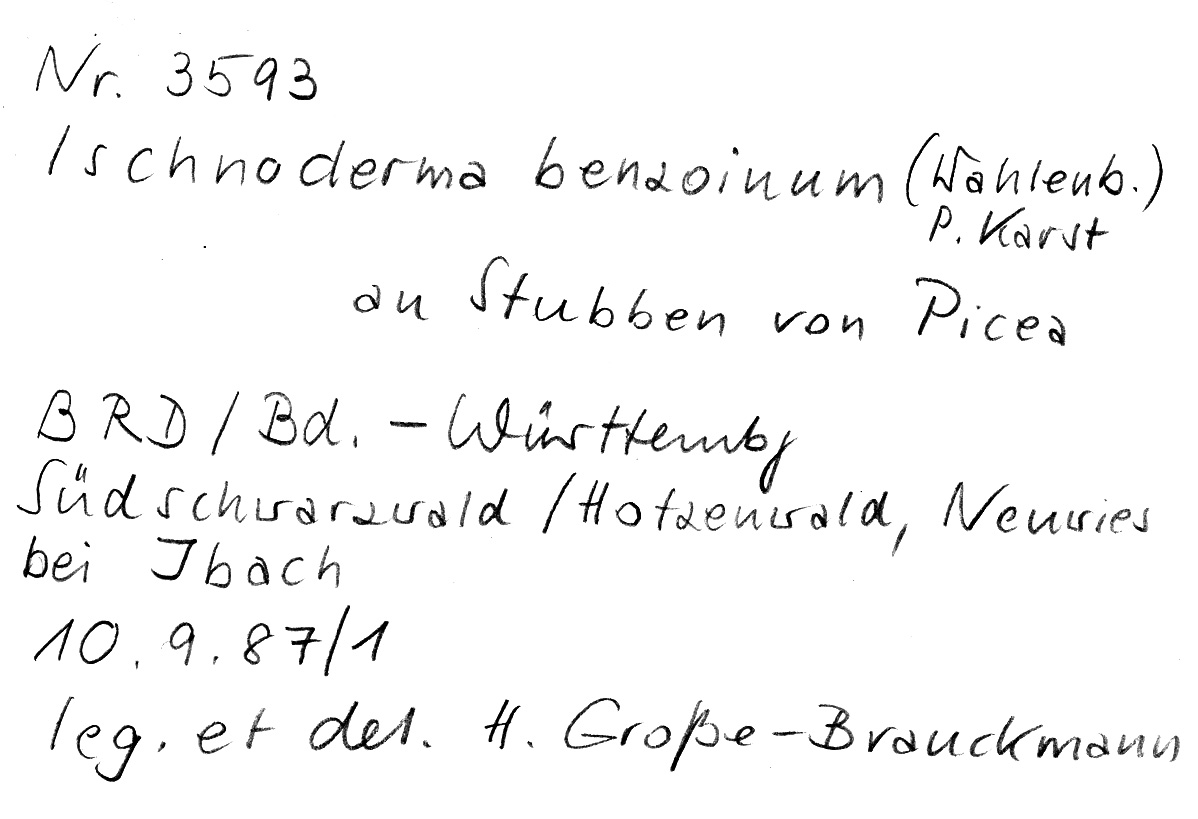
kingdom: Fungi
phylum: Basidiomycota
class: Agaricomycetes
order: Polyporales
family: Ischnodermataceae
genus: Ischnoderma
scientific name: Ischnoderma benzoinum
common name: Benzoin bracket
